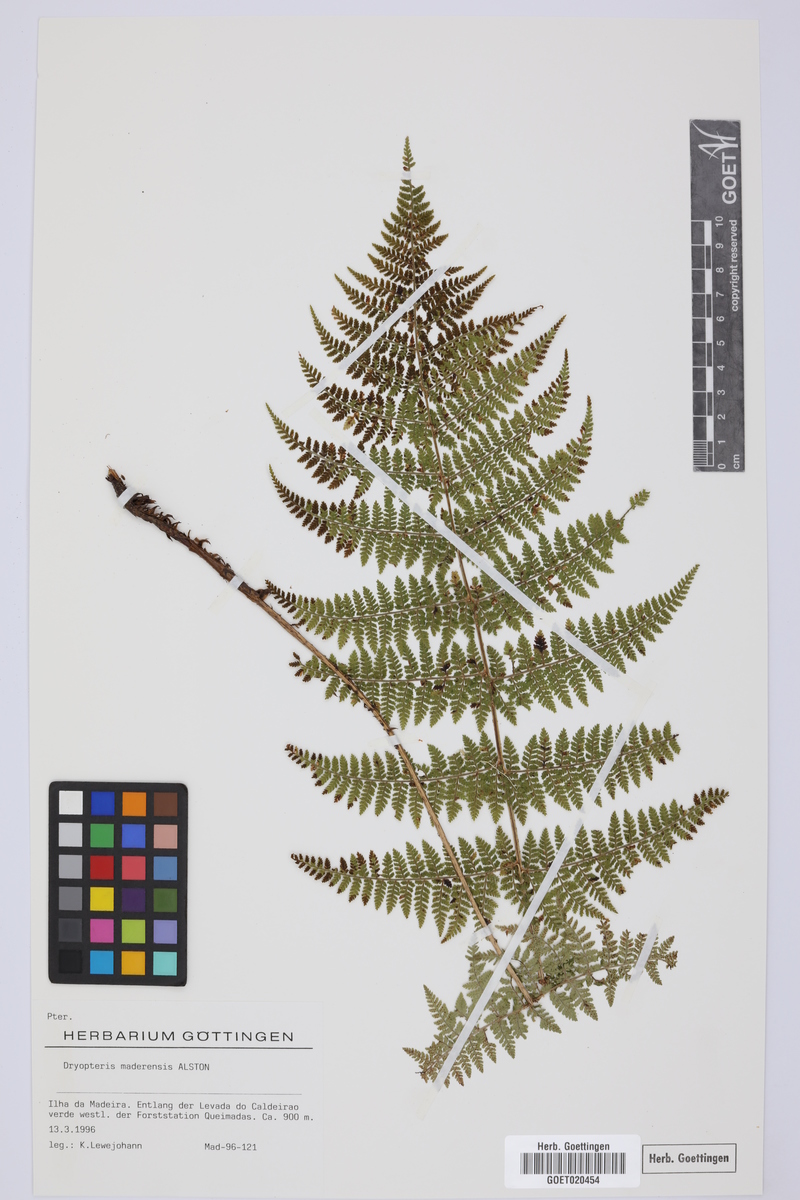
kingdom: Plantae
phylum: Tracheophyta
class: Polypodiopsida
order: Polypodiales
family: Dryopteridaceae
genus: Dryopteris
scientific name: Dryopteris intermedia
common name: Evergreen wood fern
